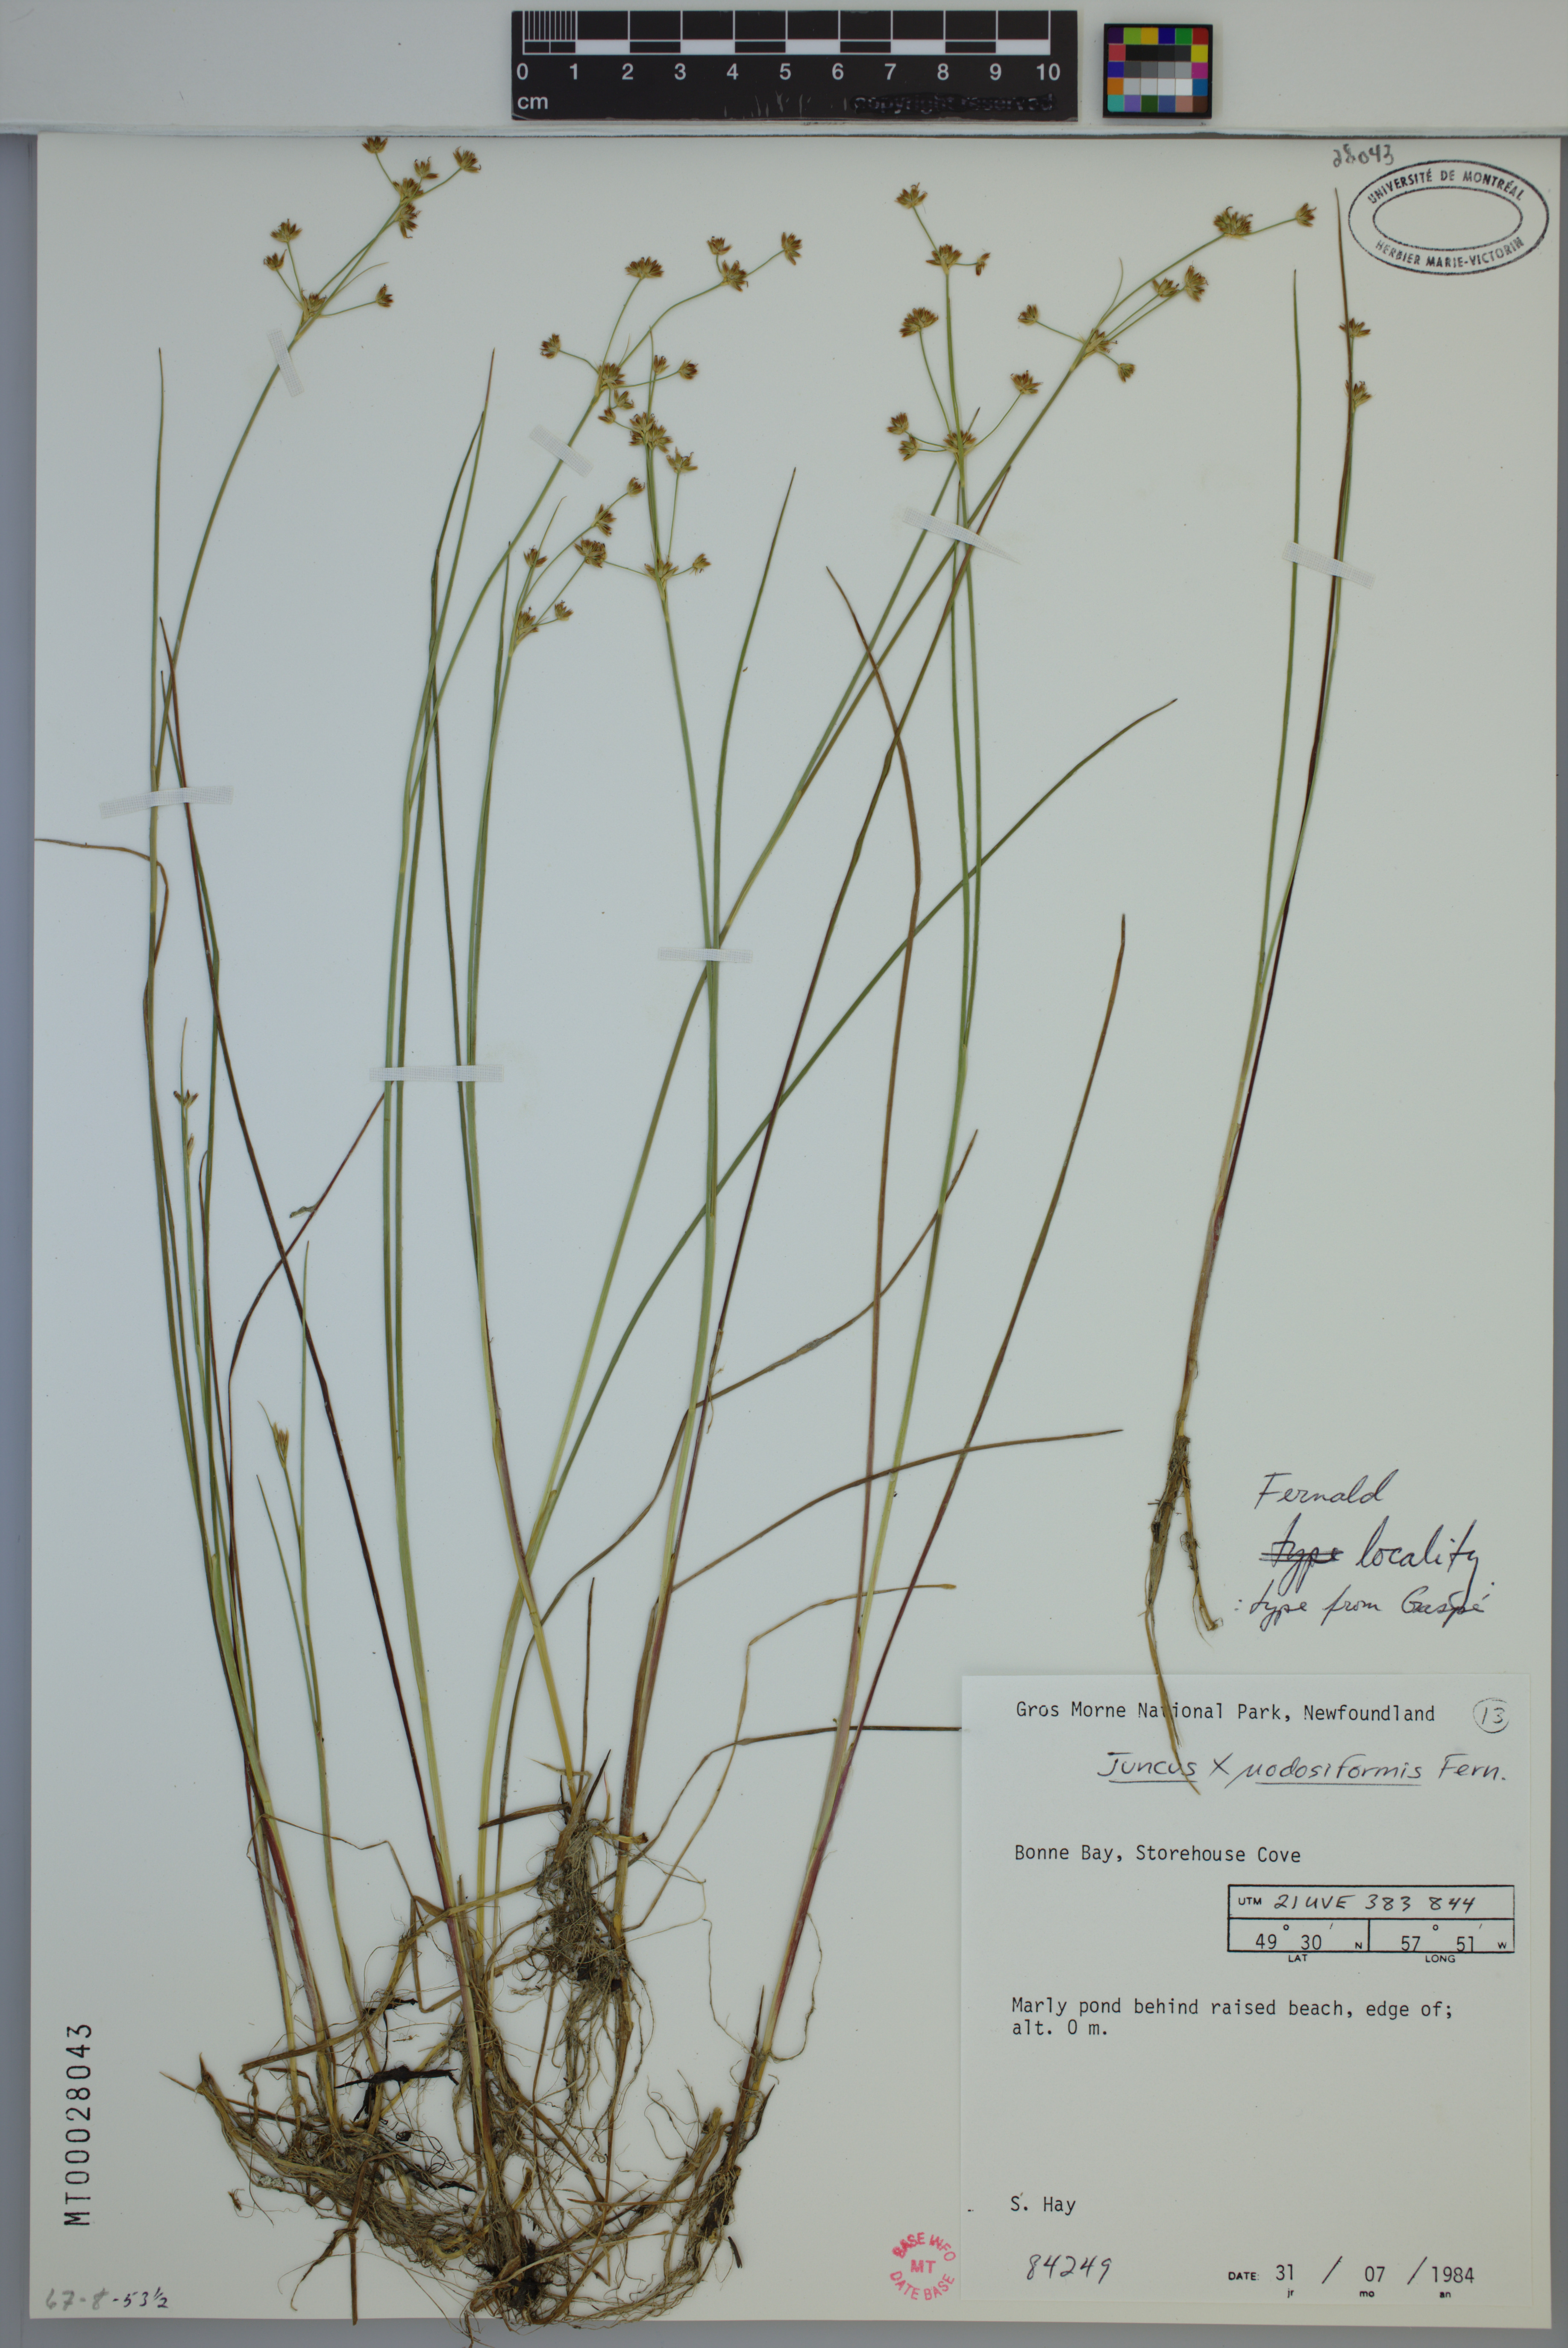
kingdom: Plantae
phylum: Tracheophyta
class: Liliopsida
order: Poales
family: Juncaceae
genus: Juncus
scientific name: Juncus nodosiformis
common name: Hybrid rush
